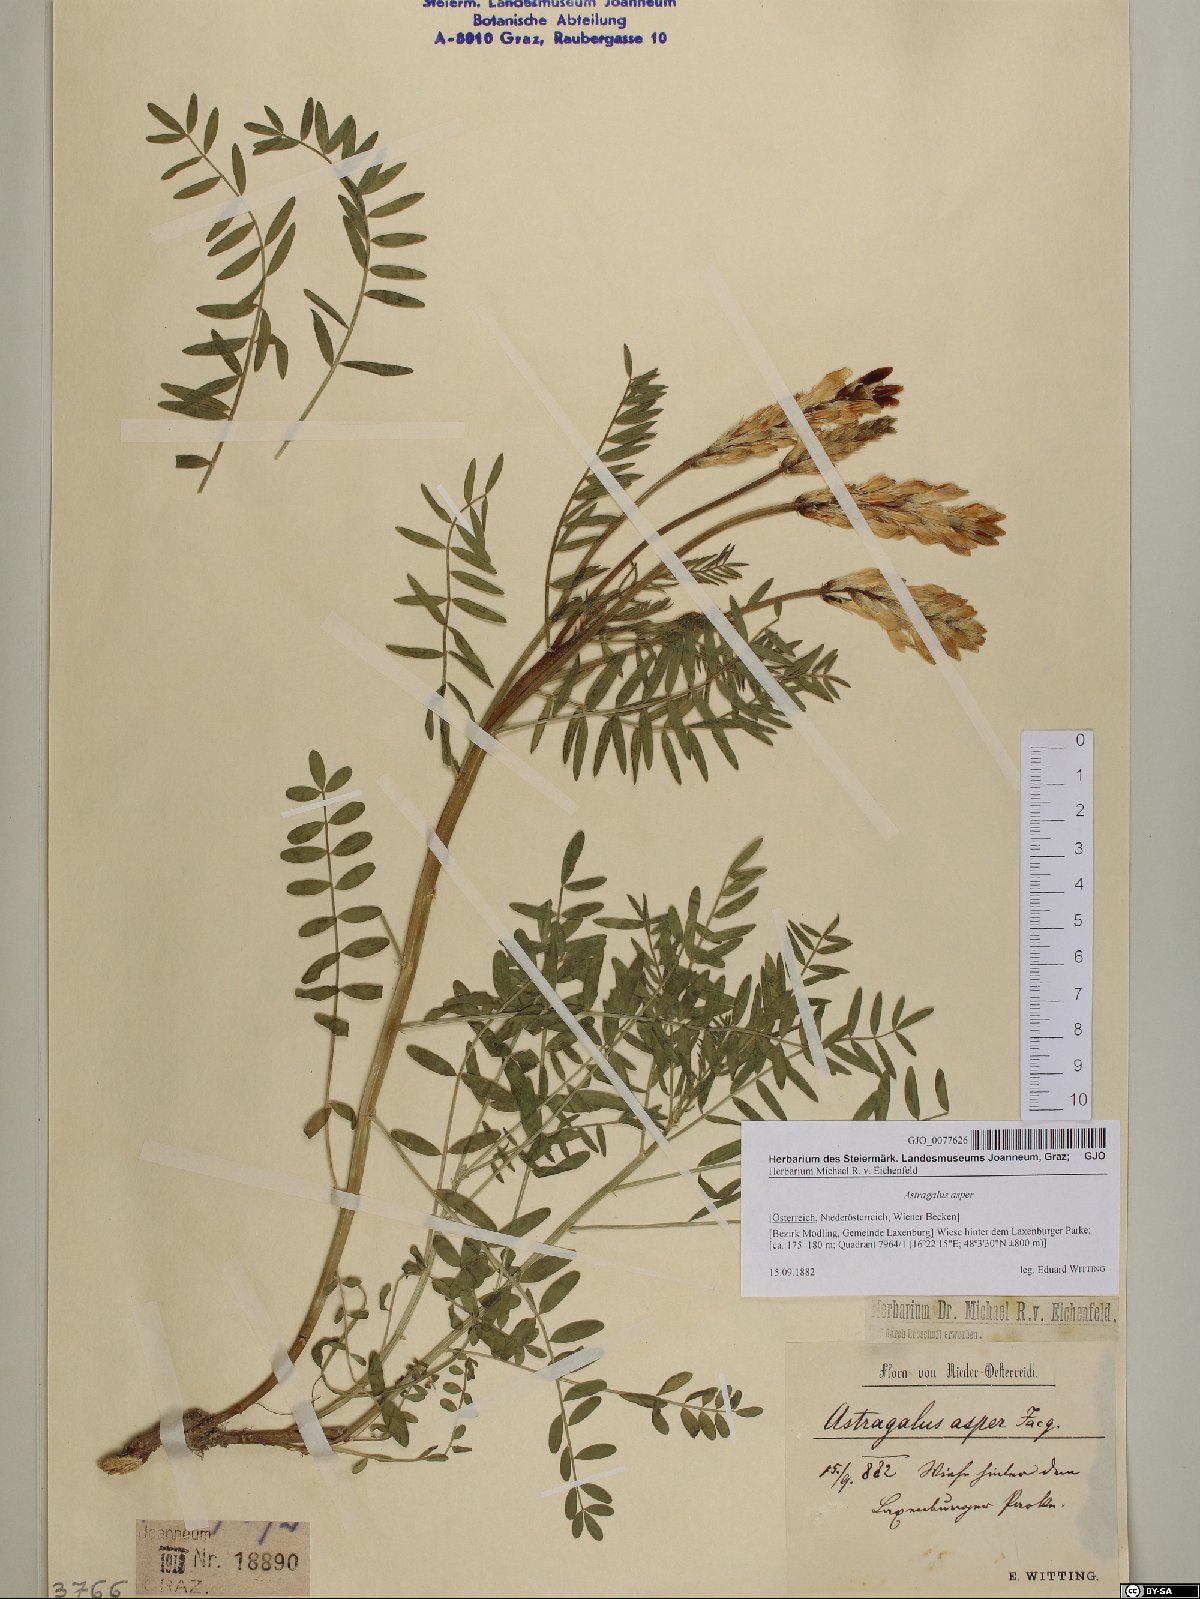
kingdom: Plantae
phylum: Tracheophyta
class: Magnoliopsida
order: Fabales
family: Fabaceae
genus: Astragalus
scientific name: Astragalus asper
